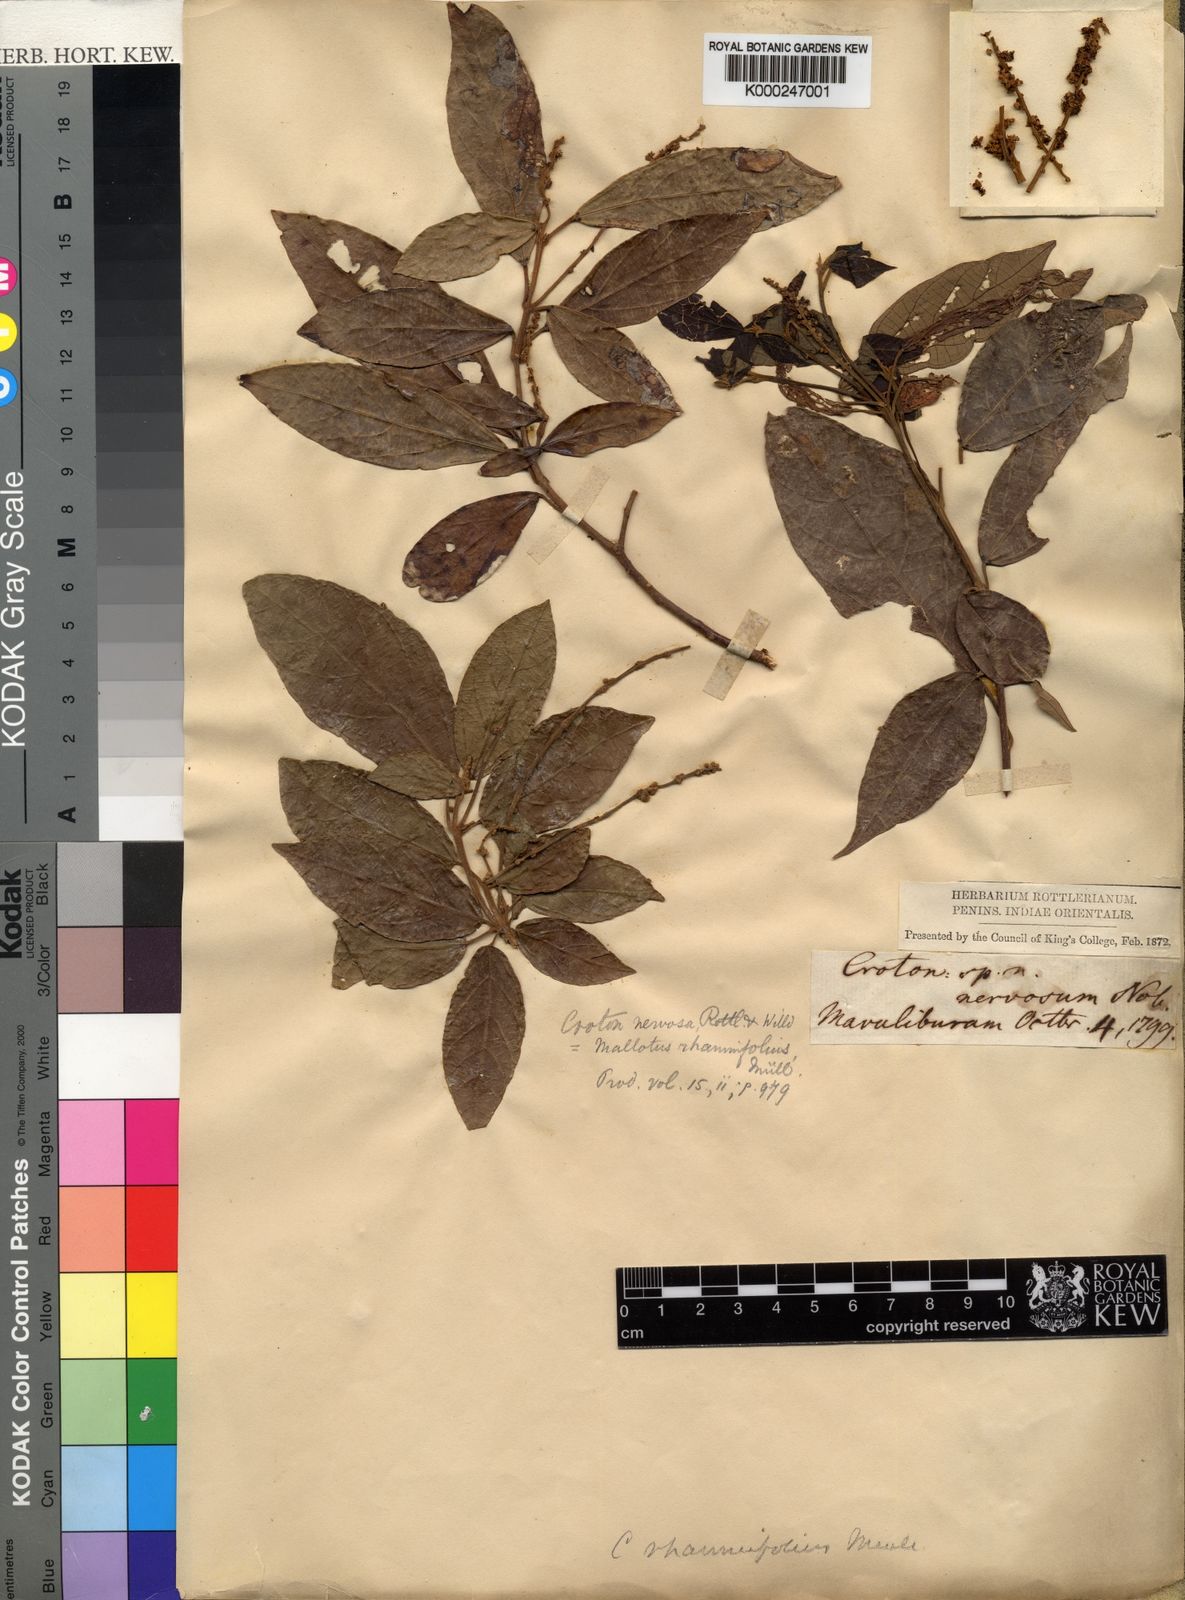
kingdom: Plantae
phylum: Tracheophyta
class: Magnoliopsida
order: Malpighiales
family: Euphorbiaceae
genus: Mallotus
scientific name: Mallotus rhamnifolius
